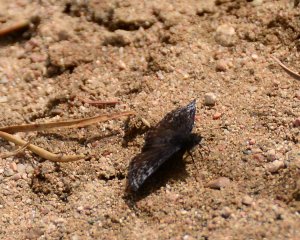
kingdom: Animalia
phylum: Arthropoda
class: Insecta
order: Lepidoptera
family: Hesperiidae
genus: Erynnis
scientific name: Erynnis icelus
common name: Dreamy Duskywing
